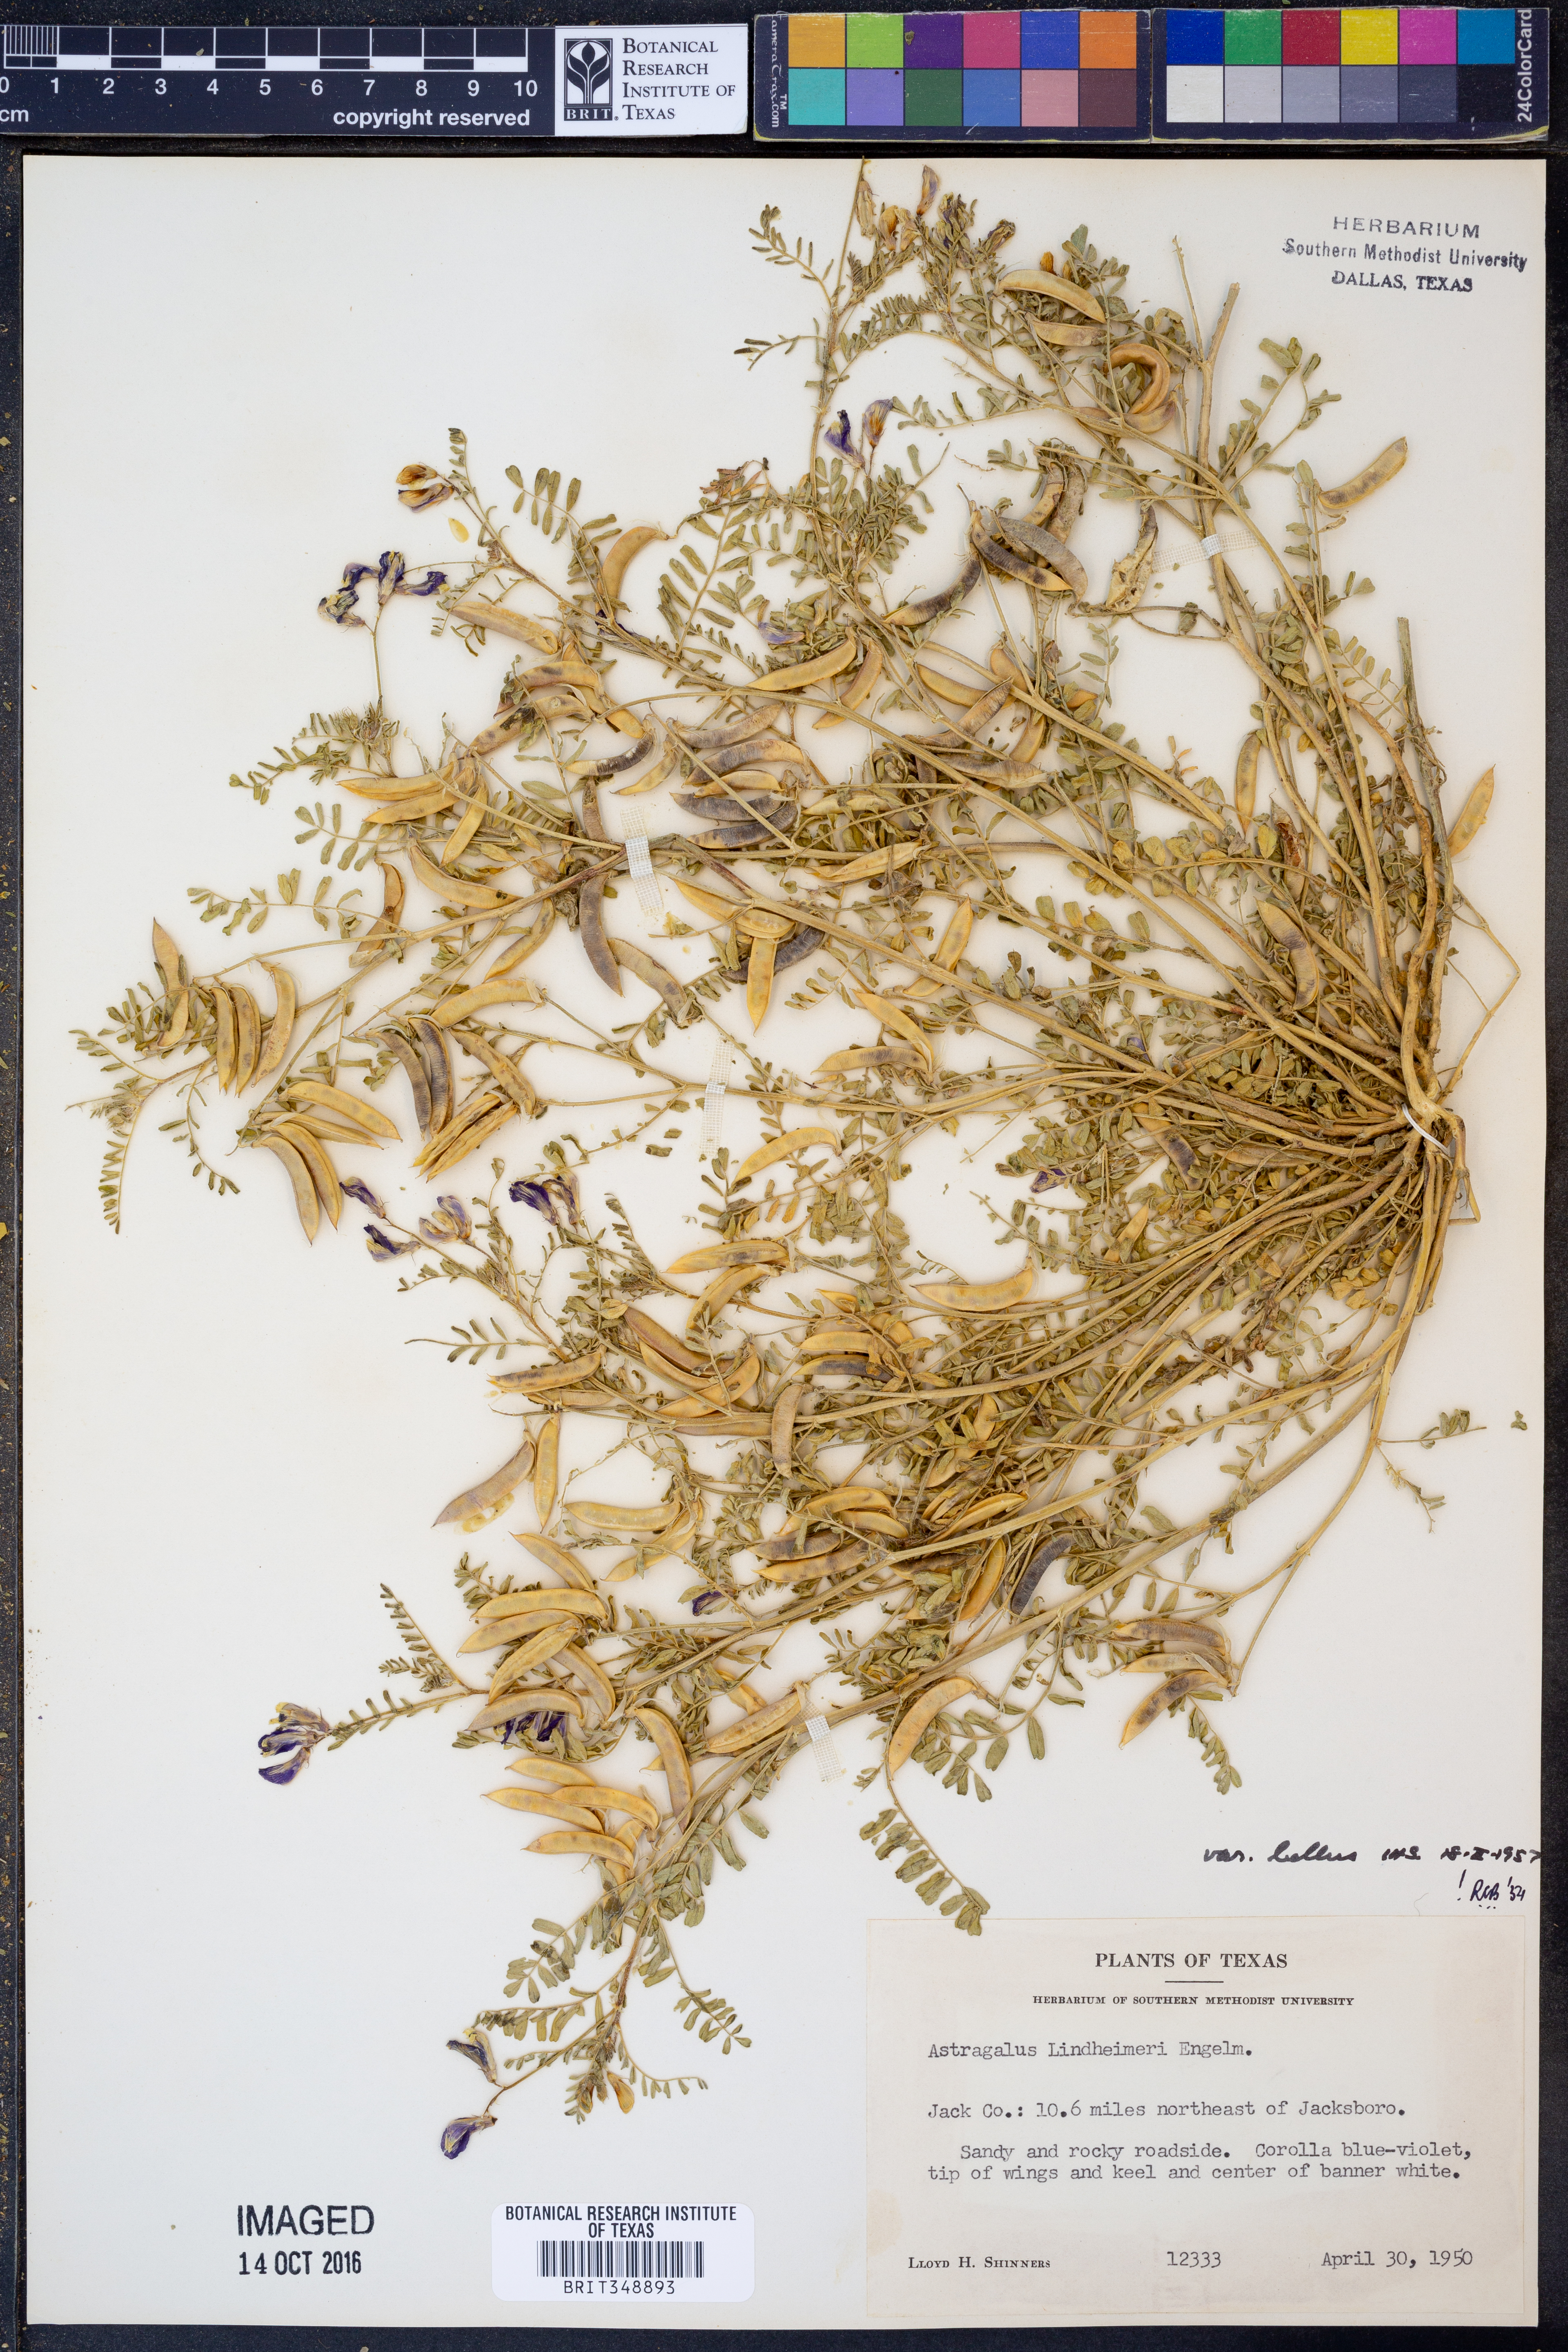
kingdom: Plantae
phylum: Tracheophyta
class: Magnoliopsida
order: Fabales
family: Fabaceae
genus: Astragalus
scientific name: Astragalus lindheimeri
